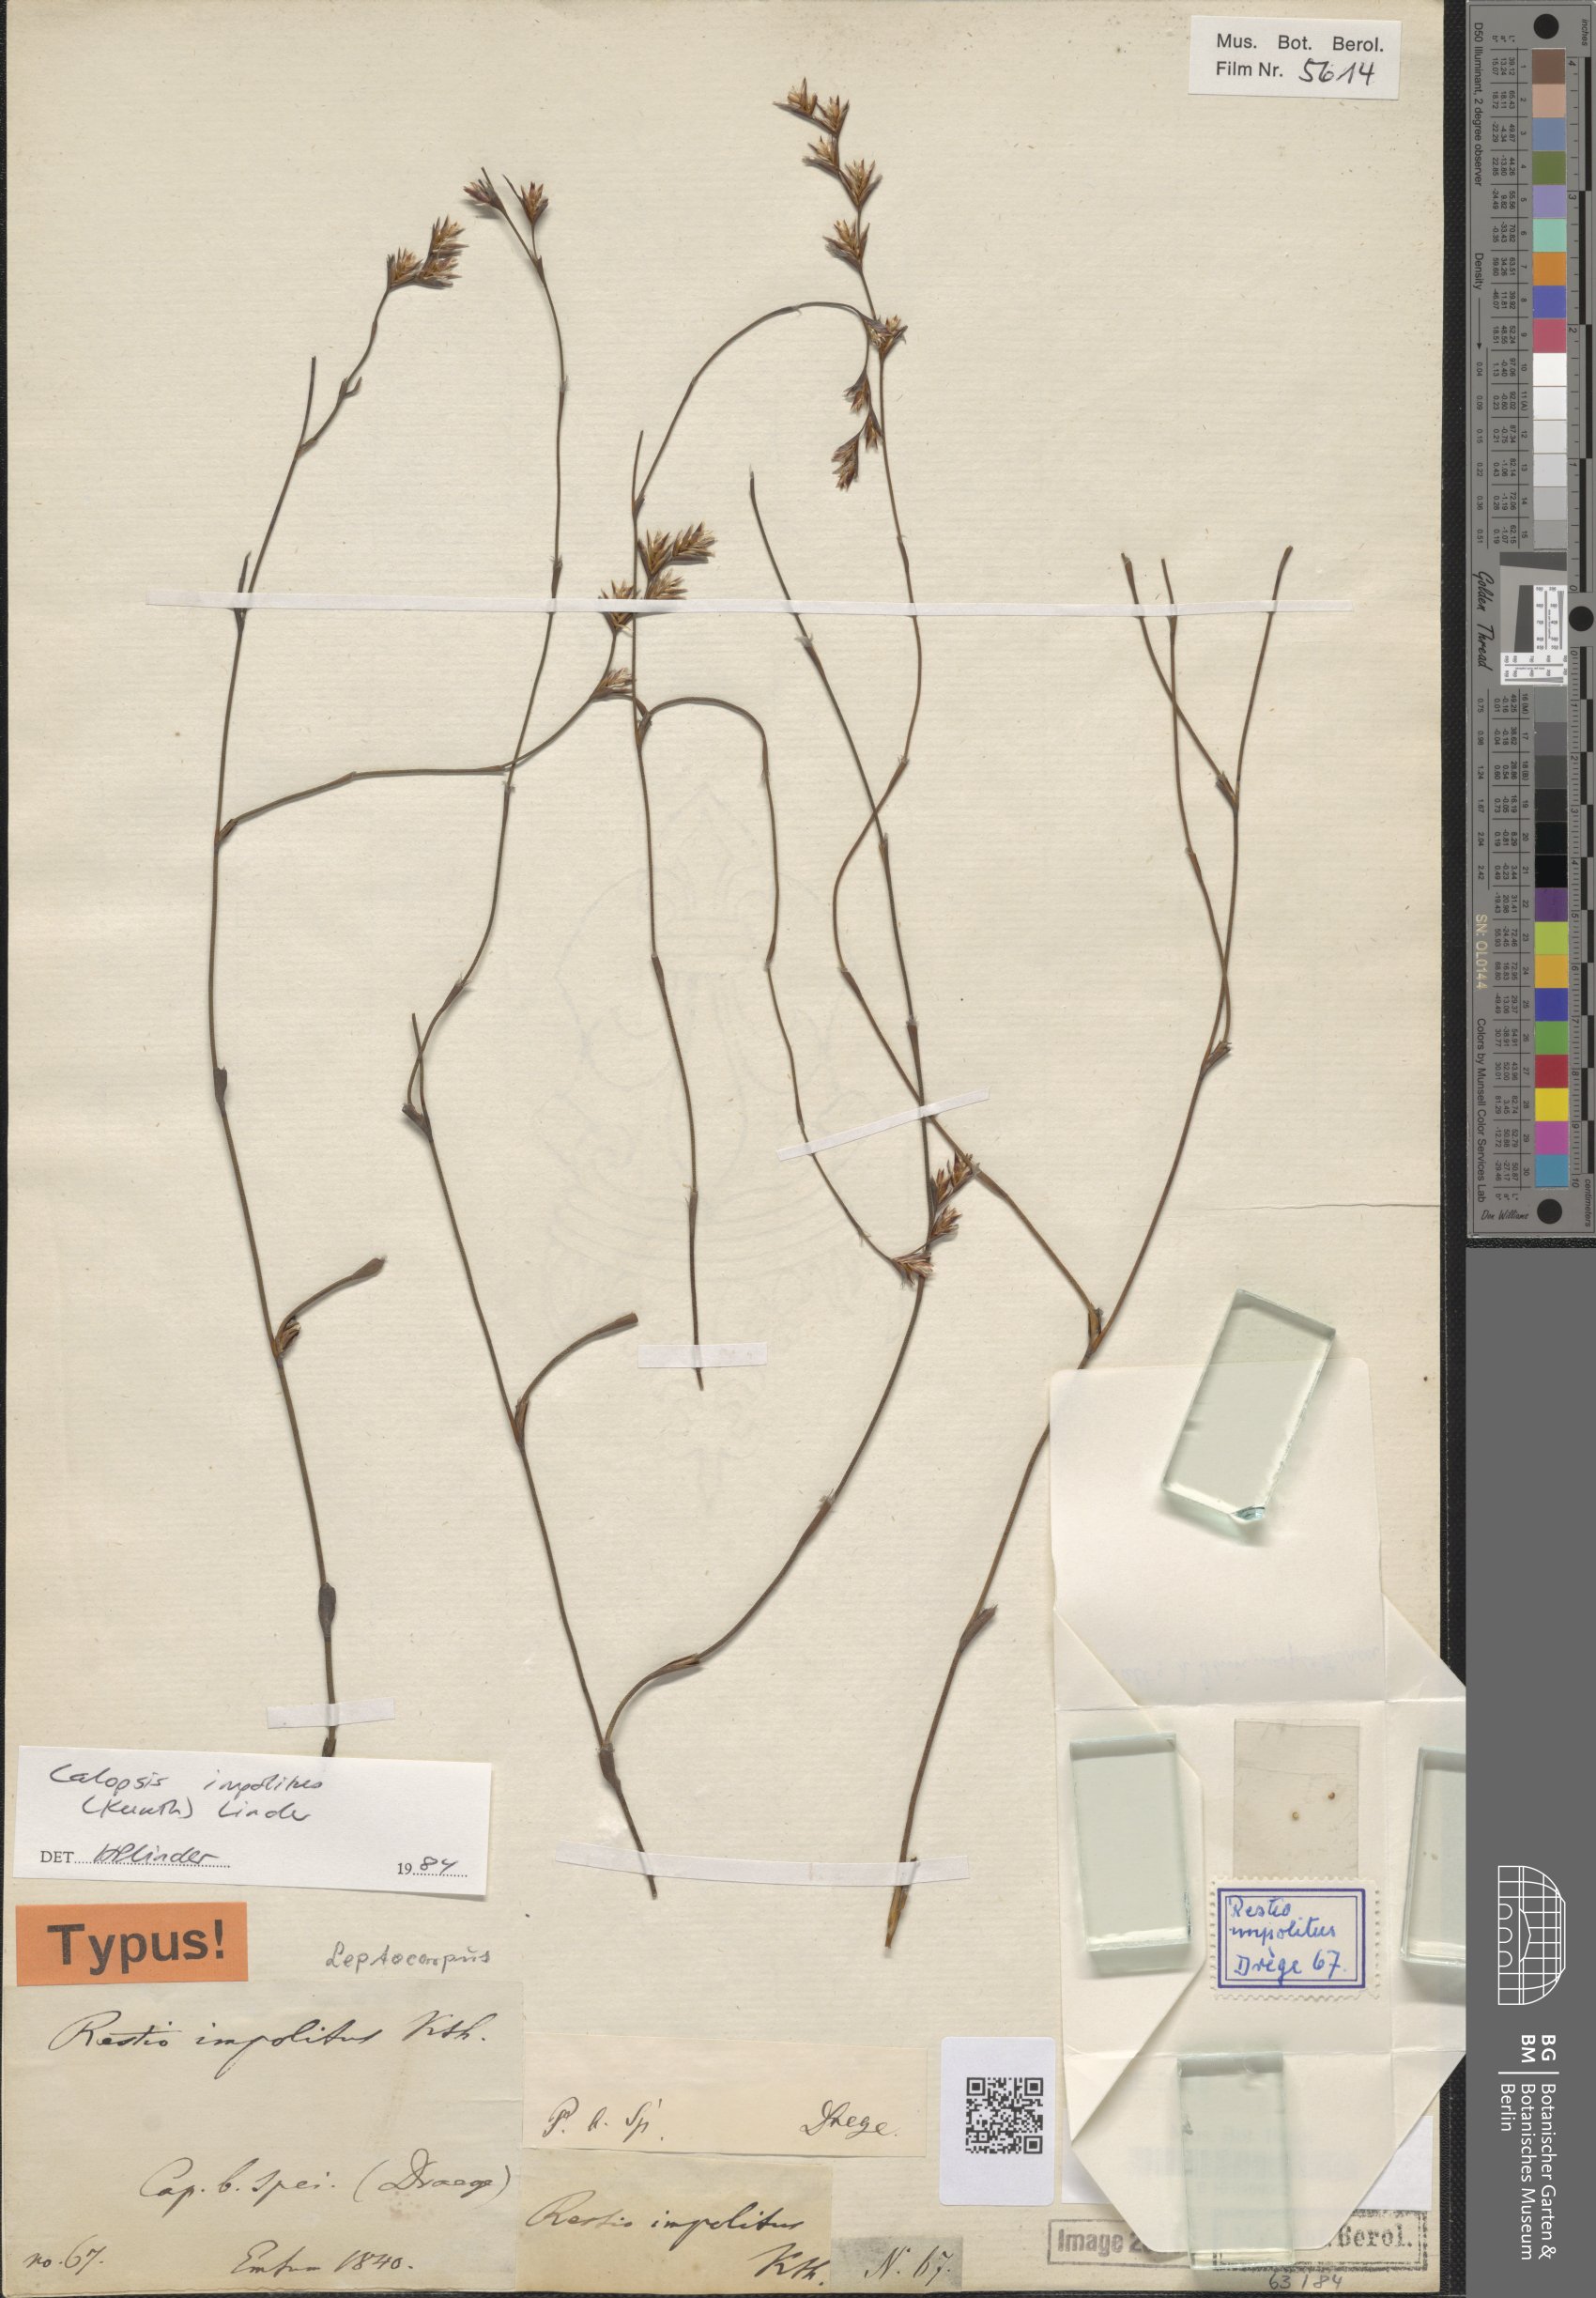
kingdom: Plantae
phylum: Tracheophyta
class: Liliopsida
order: Poales
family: Restionaceae
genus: Restio
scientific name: Restio impolitus
